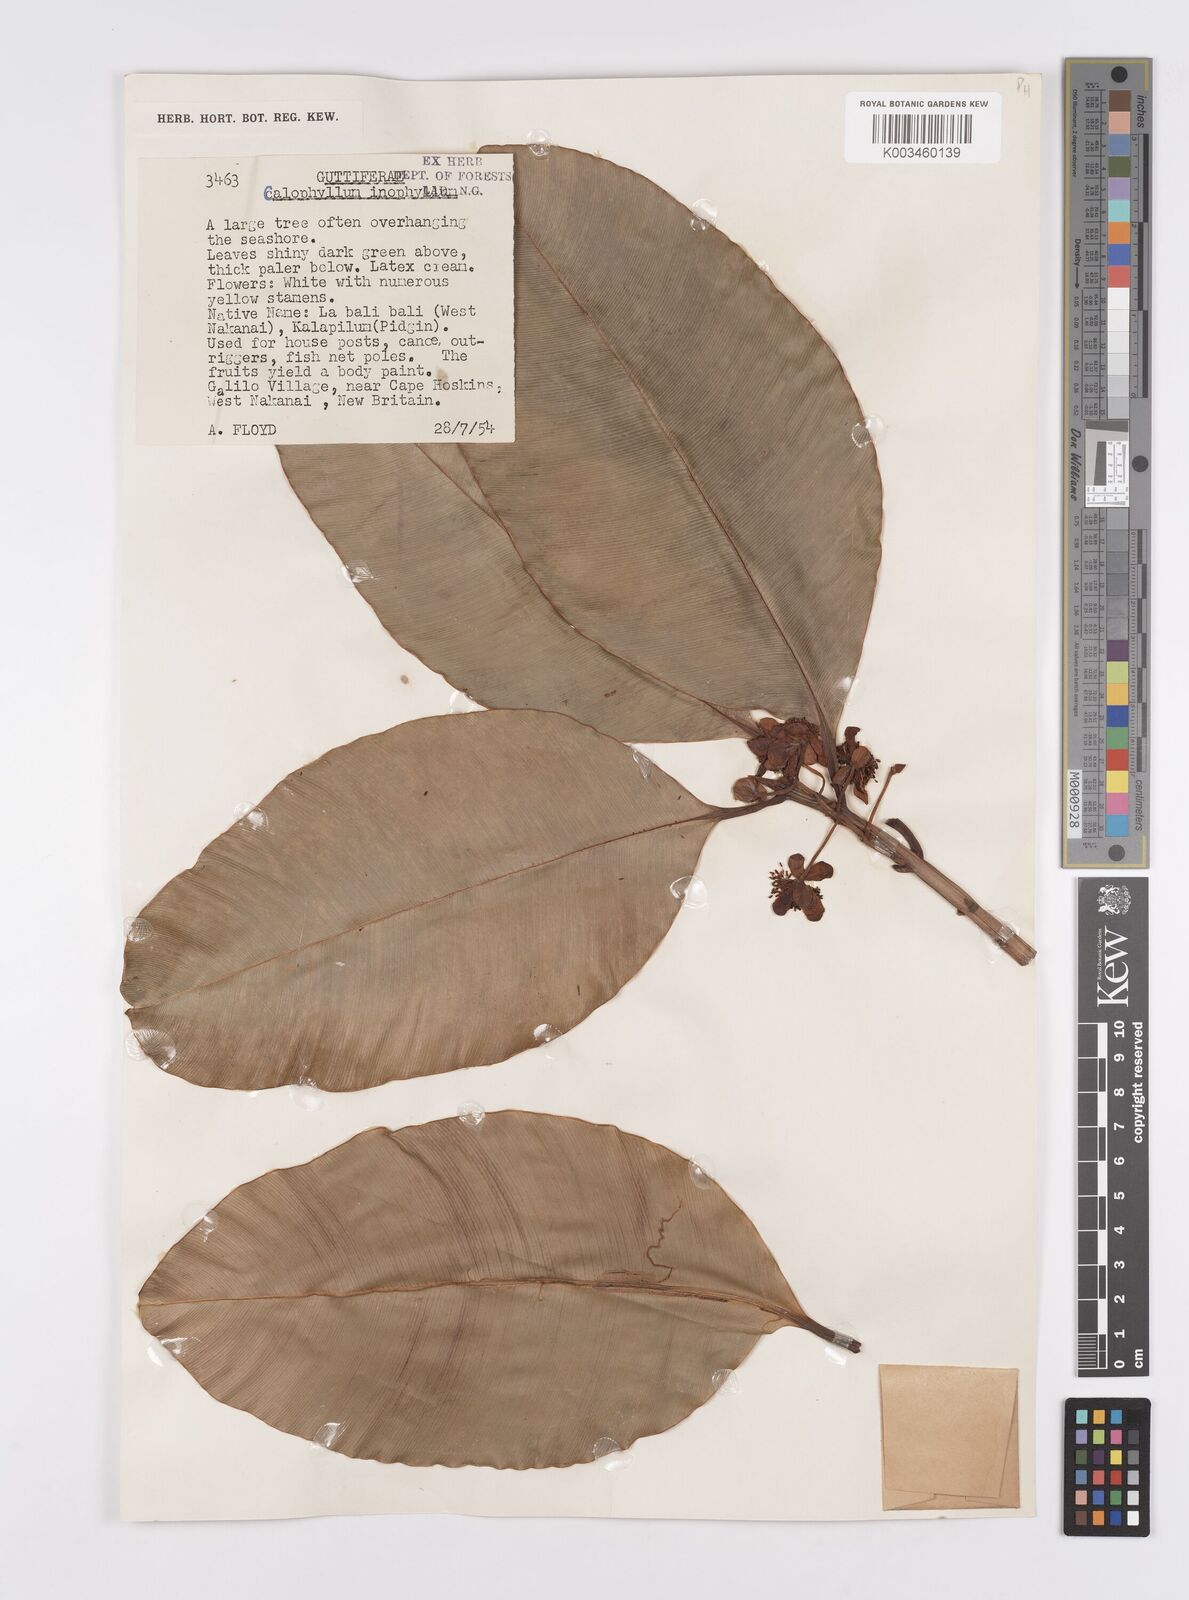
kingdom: Plantae
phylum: Tracheophyta
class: Magnoliopsida
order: Malpighiales
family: Calophyllaceae
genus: Calophyllum
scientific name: Calophyllum inophyllum
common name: Alexandrian laurel
